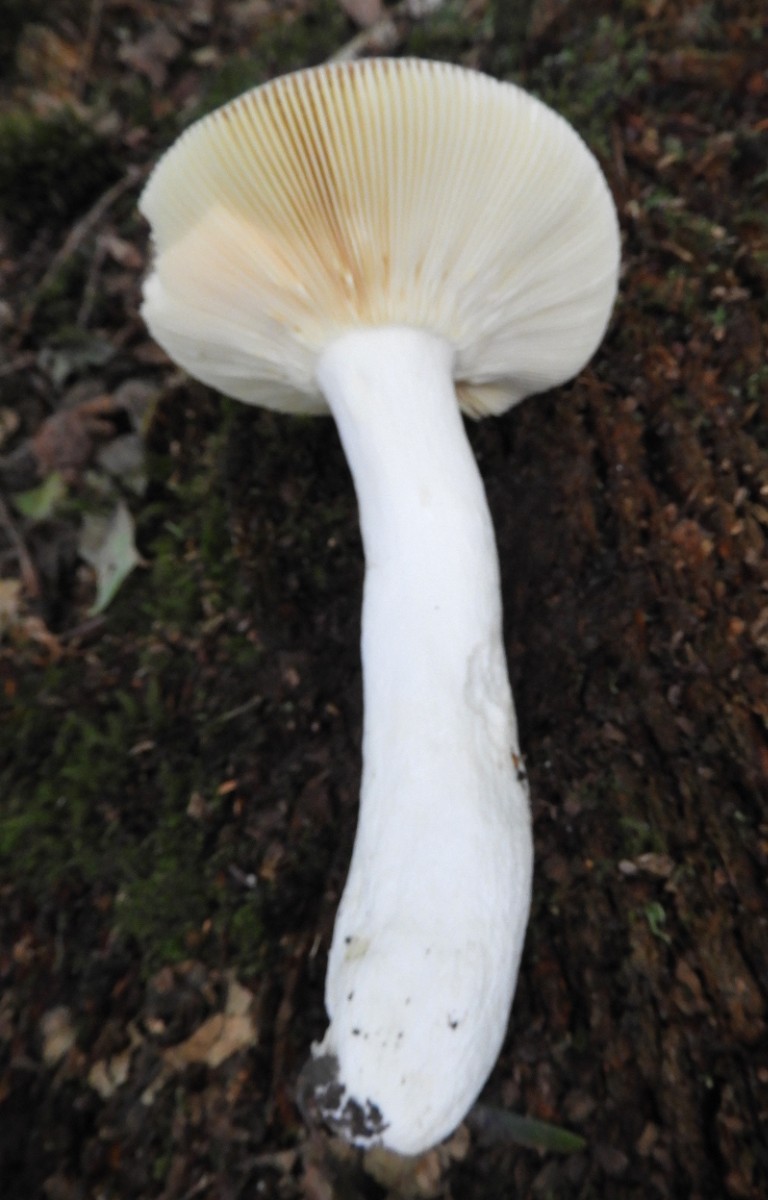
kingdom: Fungi
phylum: Basidiomycota
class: Agaricomycetes
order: Russulales
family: Russulaceae
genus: Russula
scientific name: Russula rosea
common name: fastkødet skørhat
